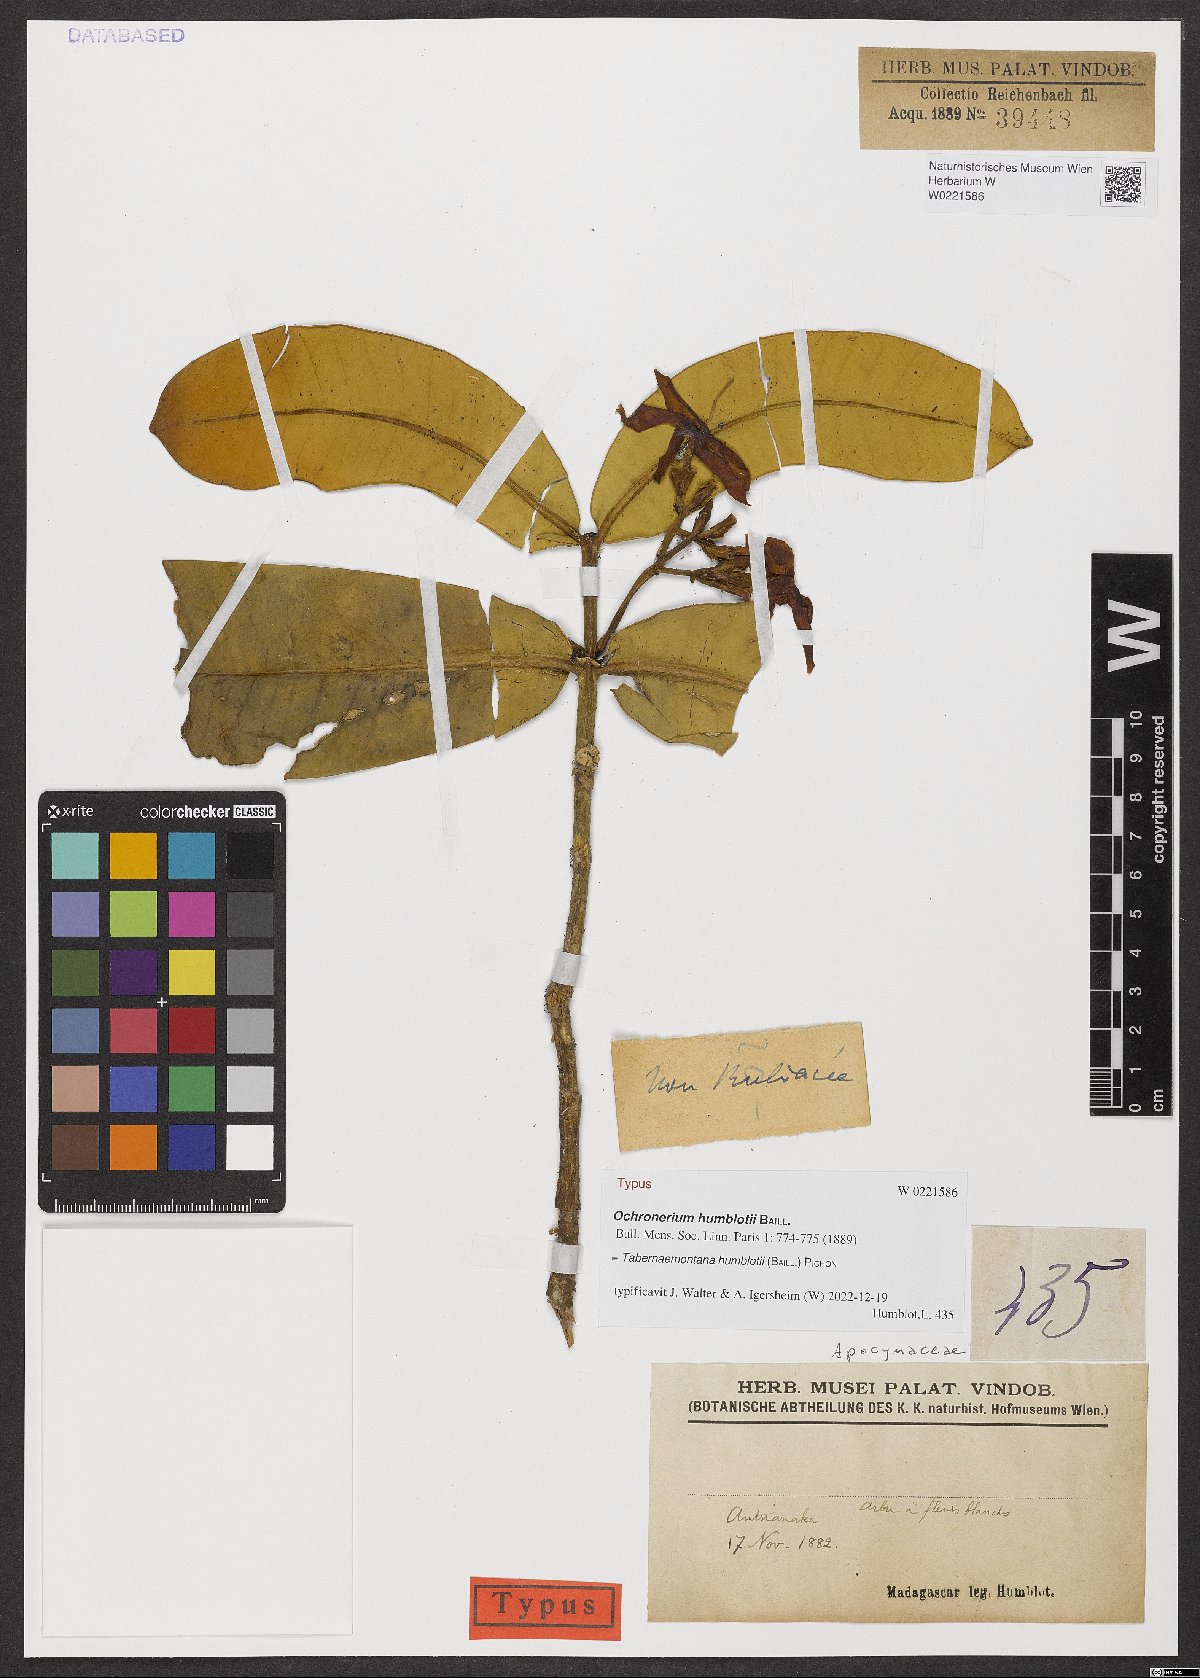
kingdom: Plantae
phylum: Tracheophyta
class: Magnoliopsida
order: Gentianales
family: Apocynaceae
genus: Tabernaemontana
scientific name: Tabernaemontana humblotii
